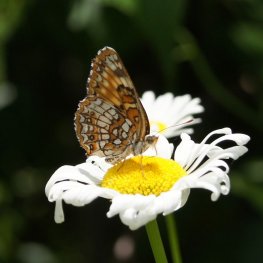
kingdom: Animalia
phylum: Arthropoda
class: Insecta
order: Lepidoptera
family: Nymphalidae
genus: Chlosyne
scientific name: Chlosyne harrisii
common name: Harris's Checkerspot
